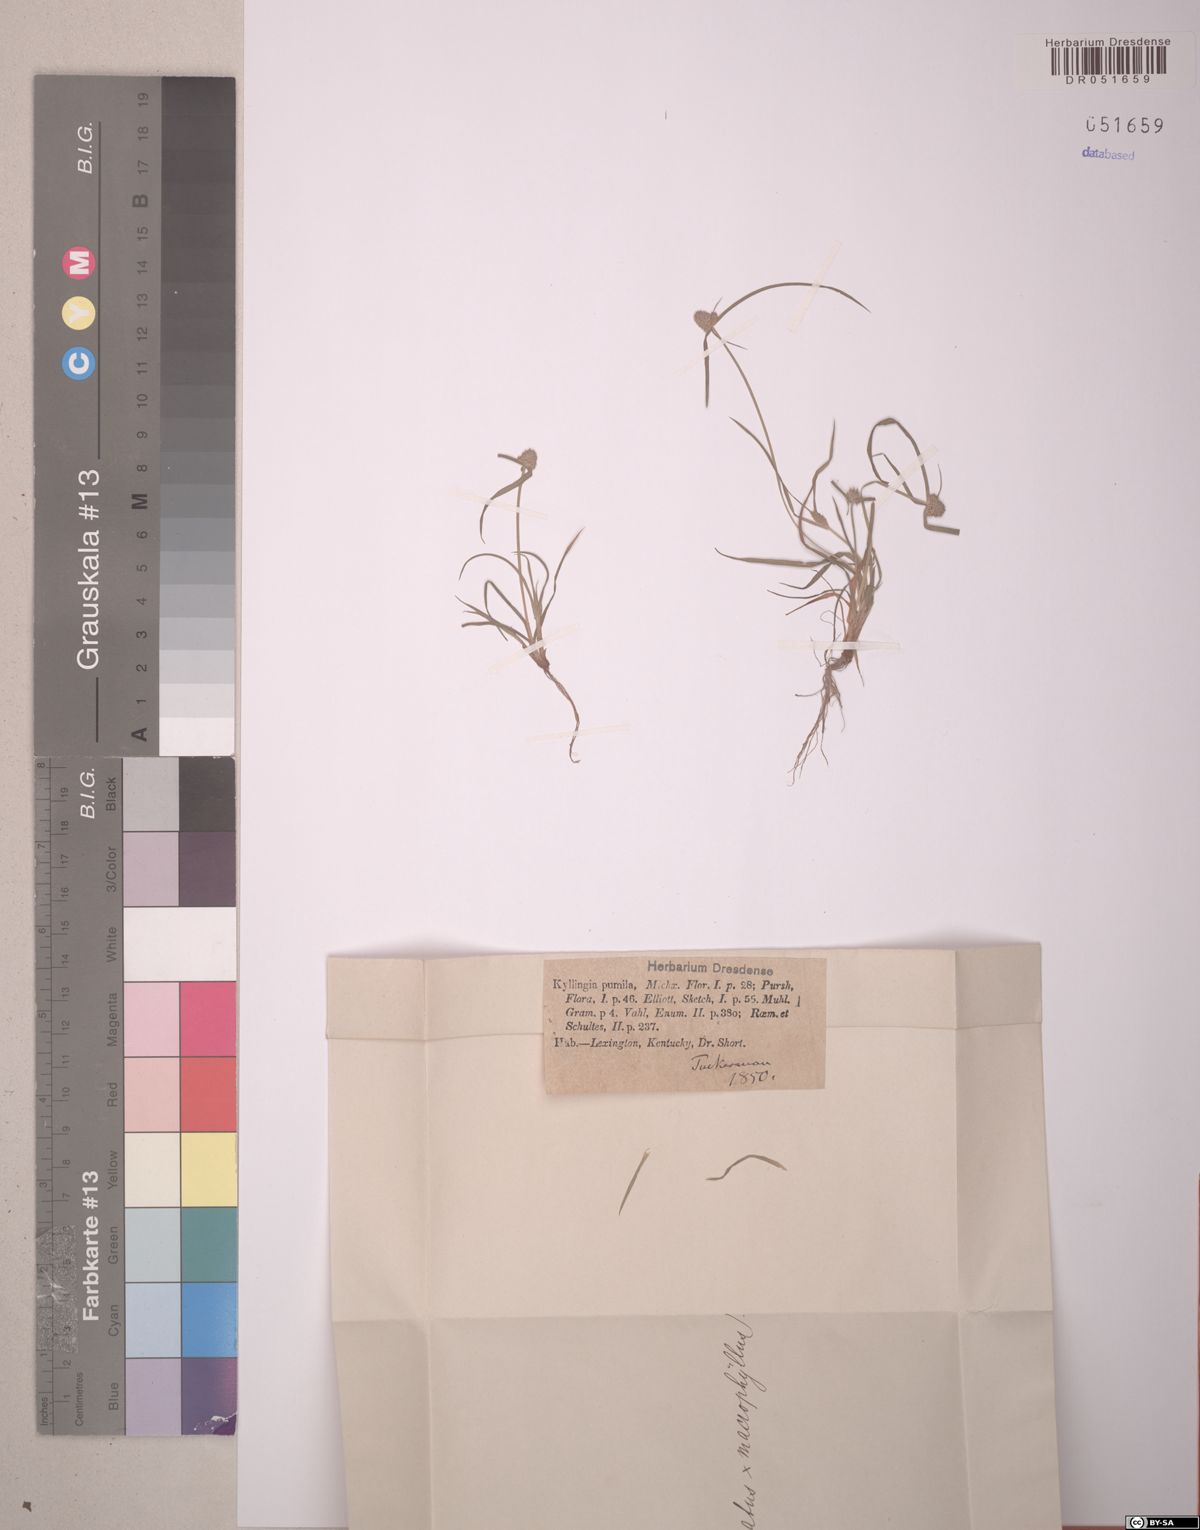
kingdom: Plantae
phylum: Tracheophyta
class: Liliopsida
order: Poales
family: Cyperaceae
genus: Cyperus
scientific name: Cyperus hortensis
